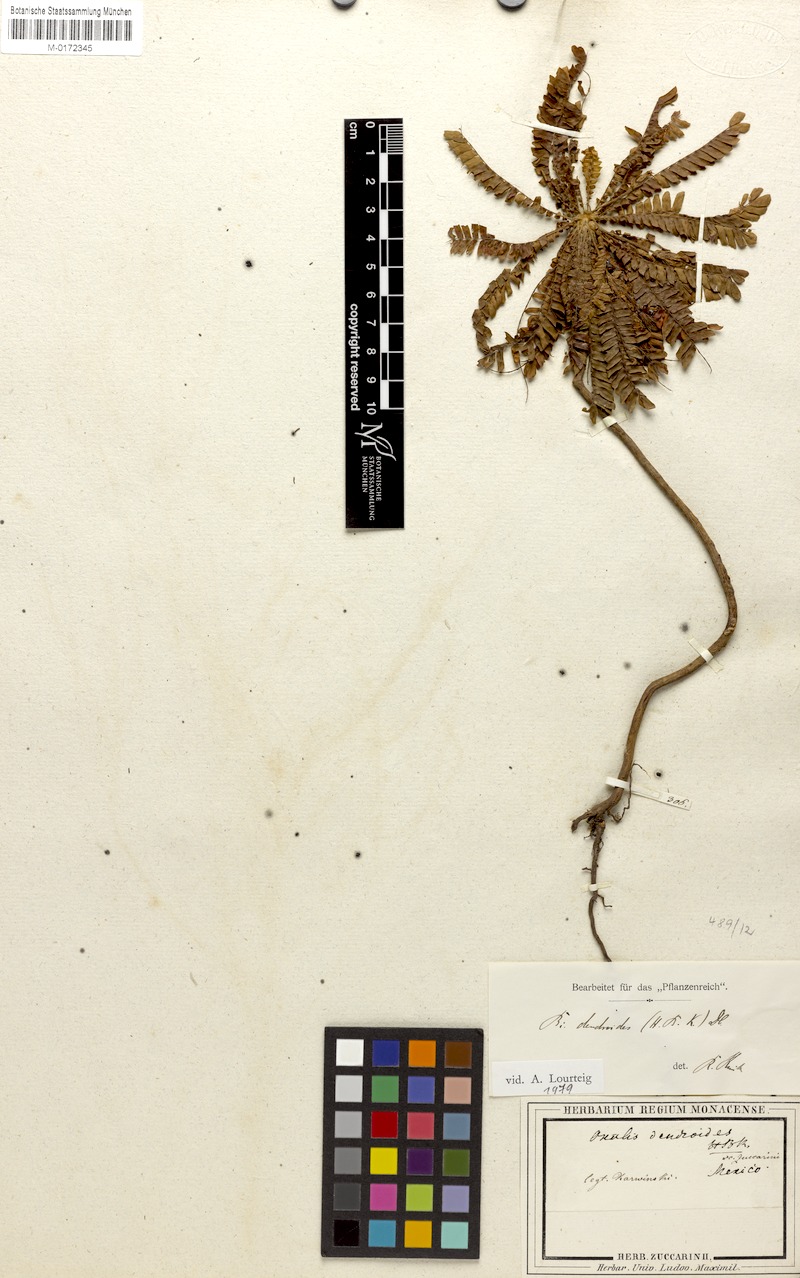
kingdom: Plantae
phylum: Tracheophyta
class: Magnoliopsida
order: Oxalidales
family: Oxalidaceae
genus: Biophytum
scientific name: Biophytum
